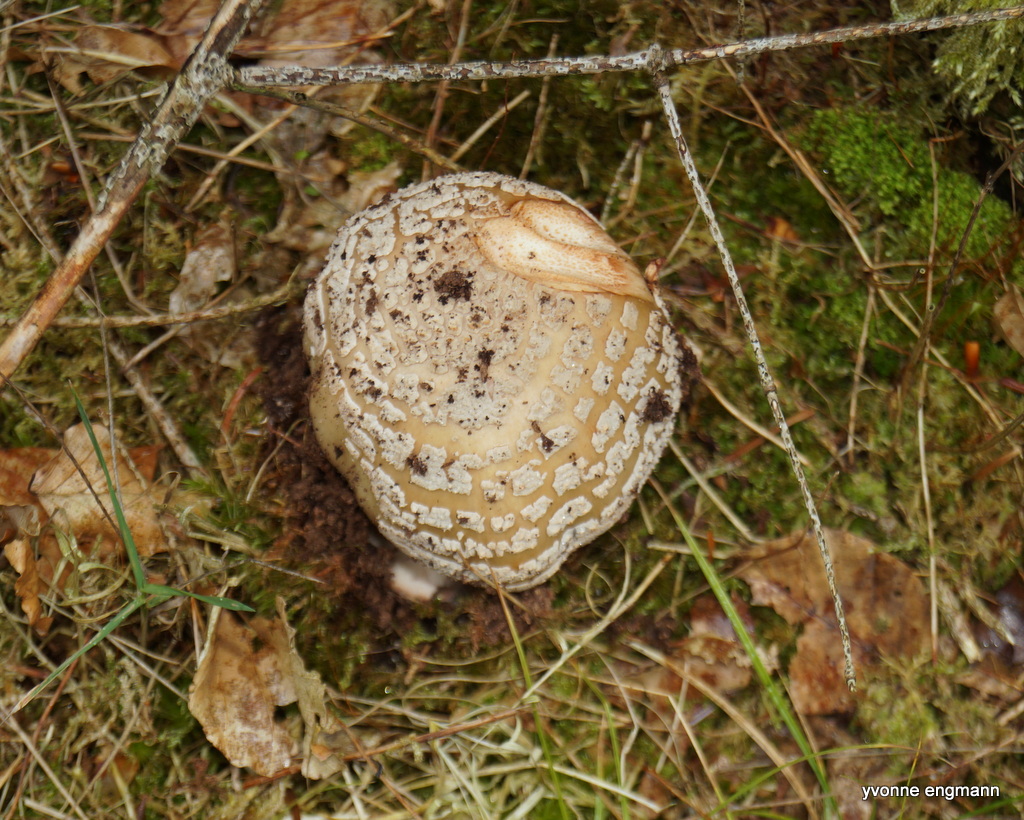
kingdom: Fungi
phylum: Basidiomycota
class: Agaricomycetes
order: Agaricales
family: Amanitaceae
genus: Amanita
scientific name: Amanita rubescens
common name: rødmende fluesvamp
